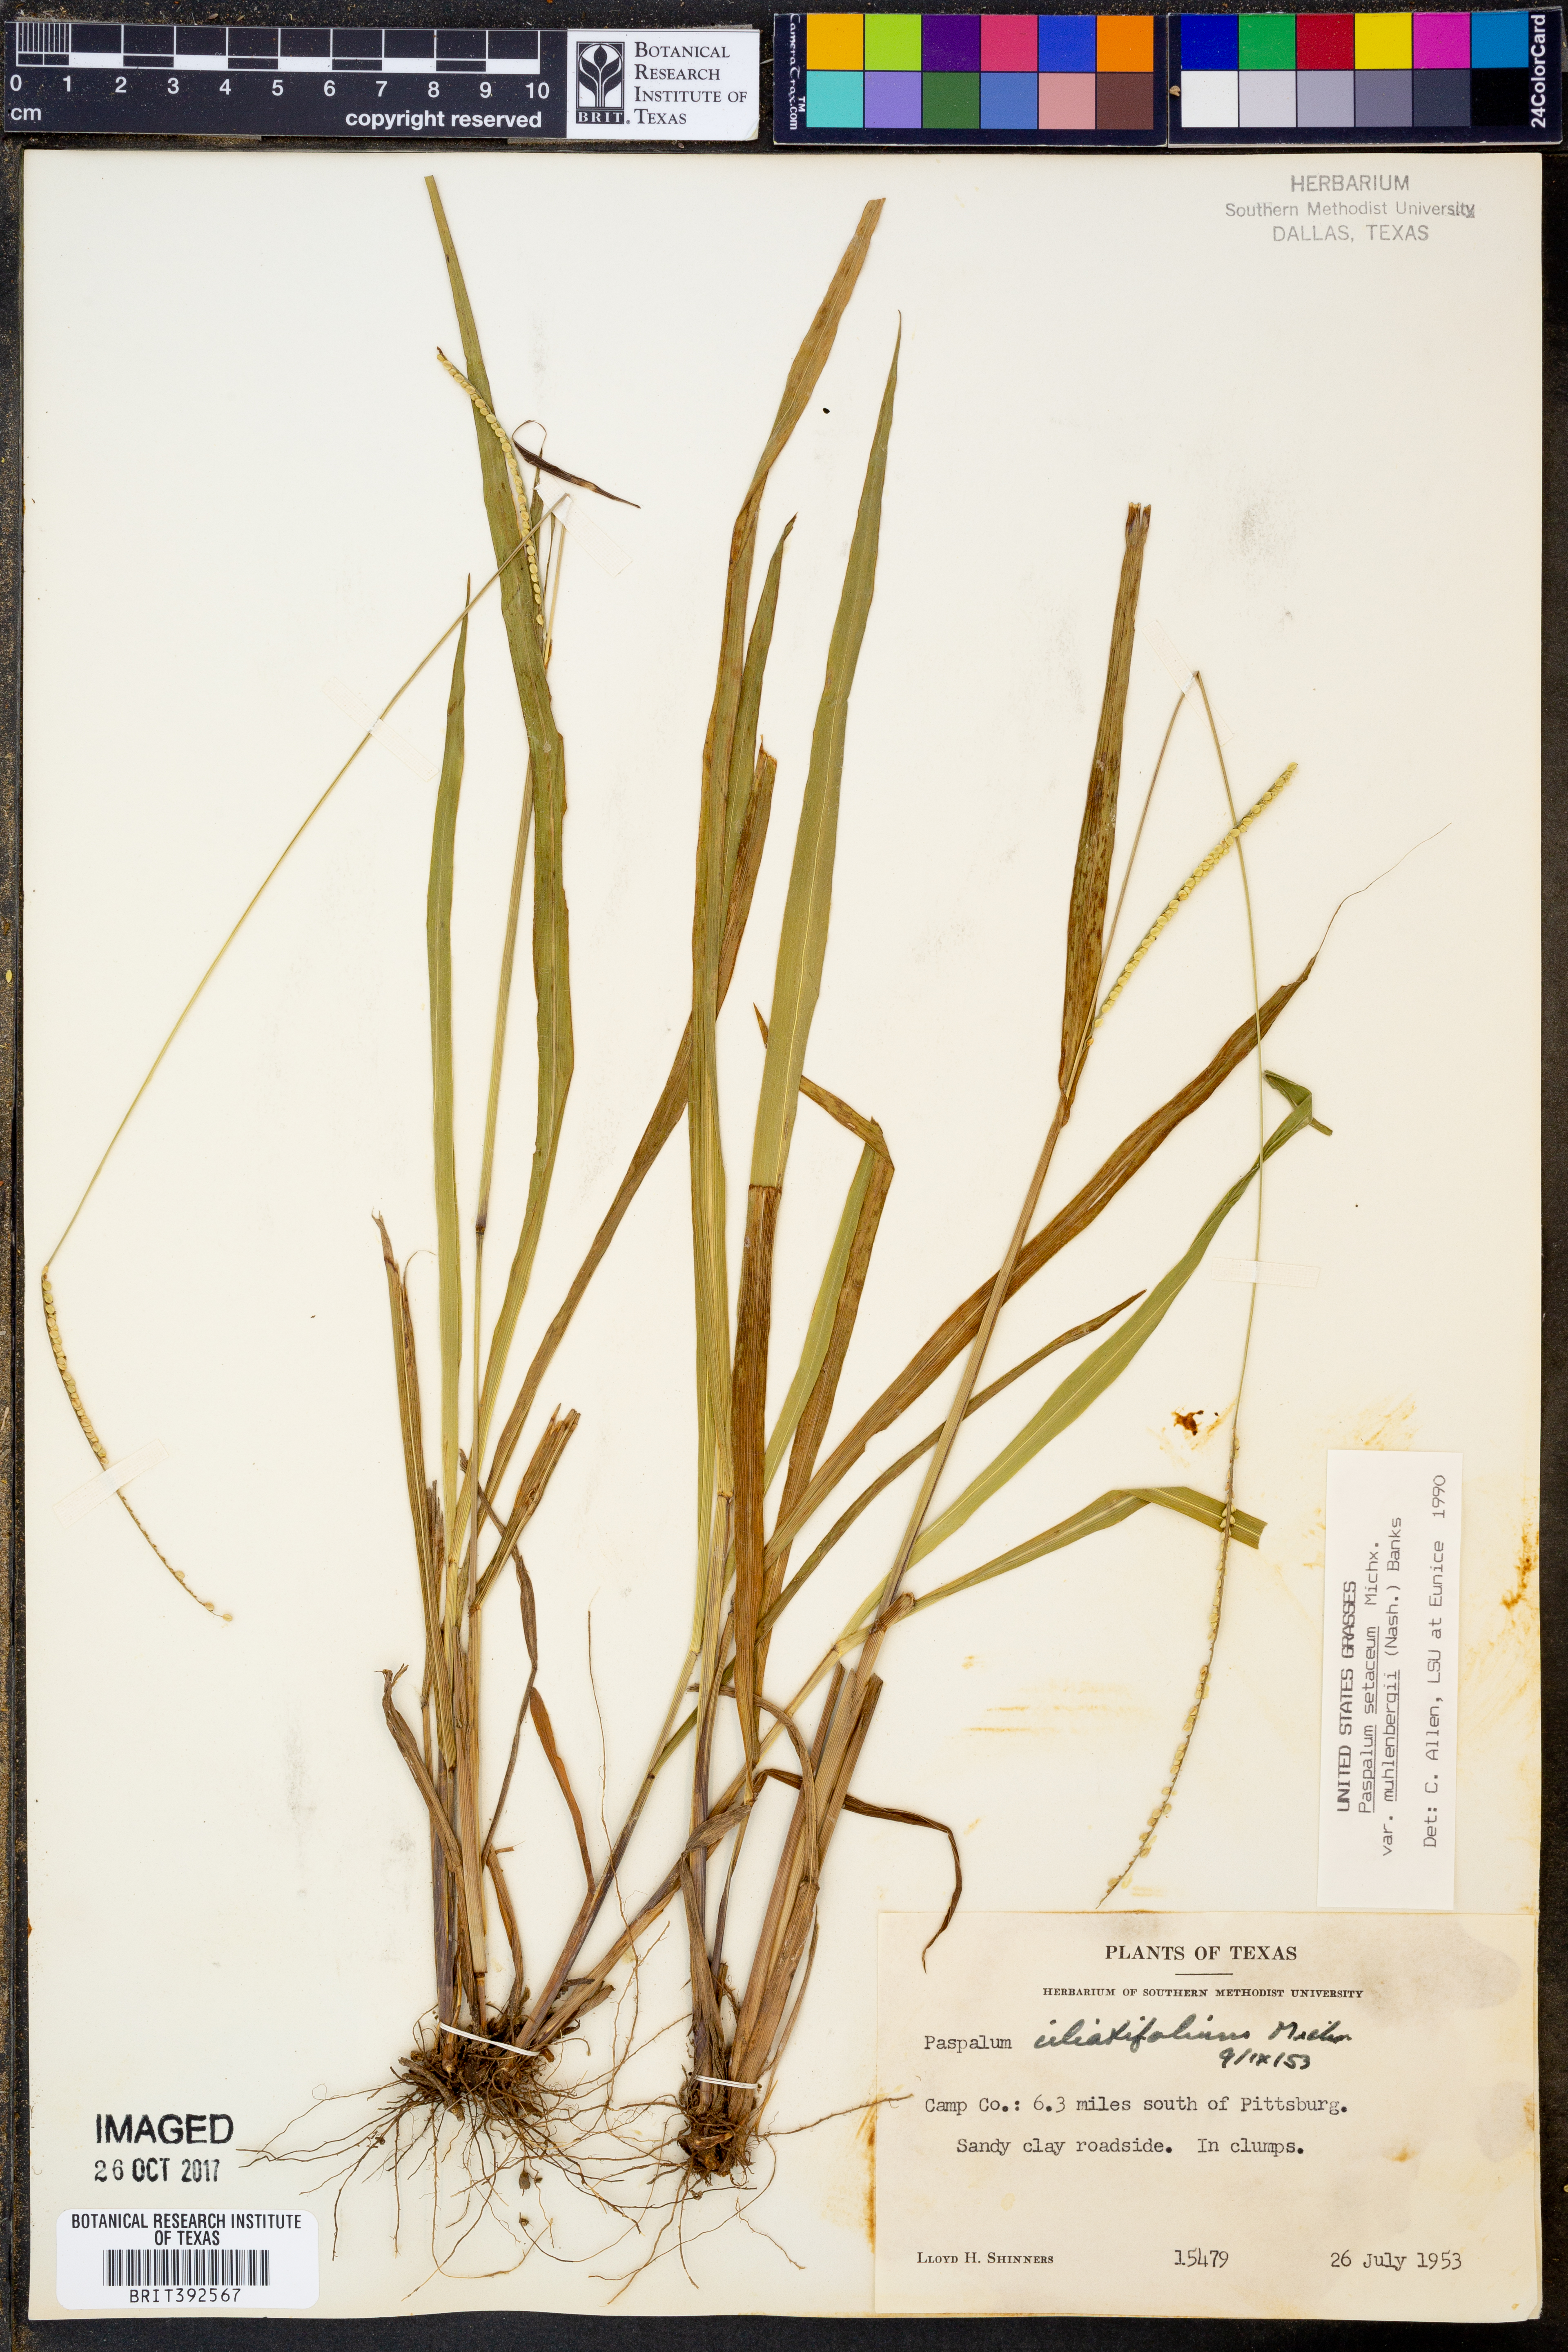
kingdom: Plantae
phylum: Tracheophyta
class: Liliopsida
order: Poales
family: Poaceae
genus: Paspalum
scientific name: Paspalum setaceum
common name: Slender paspalum
